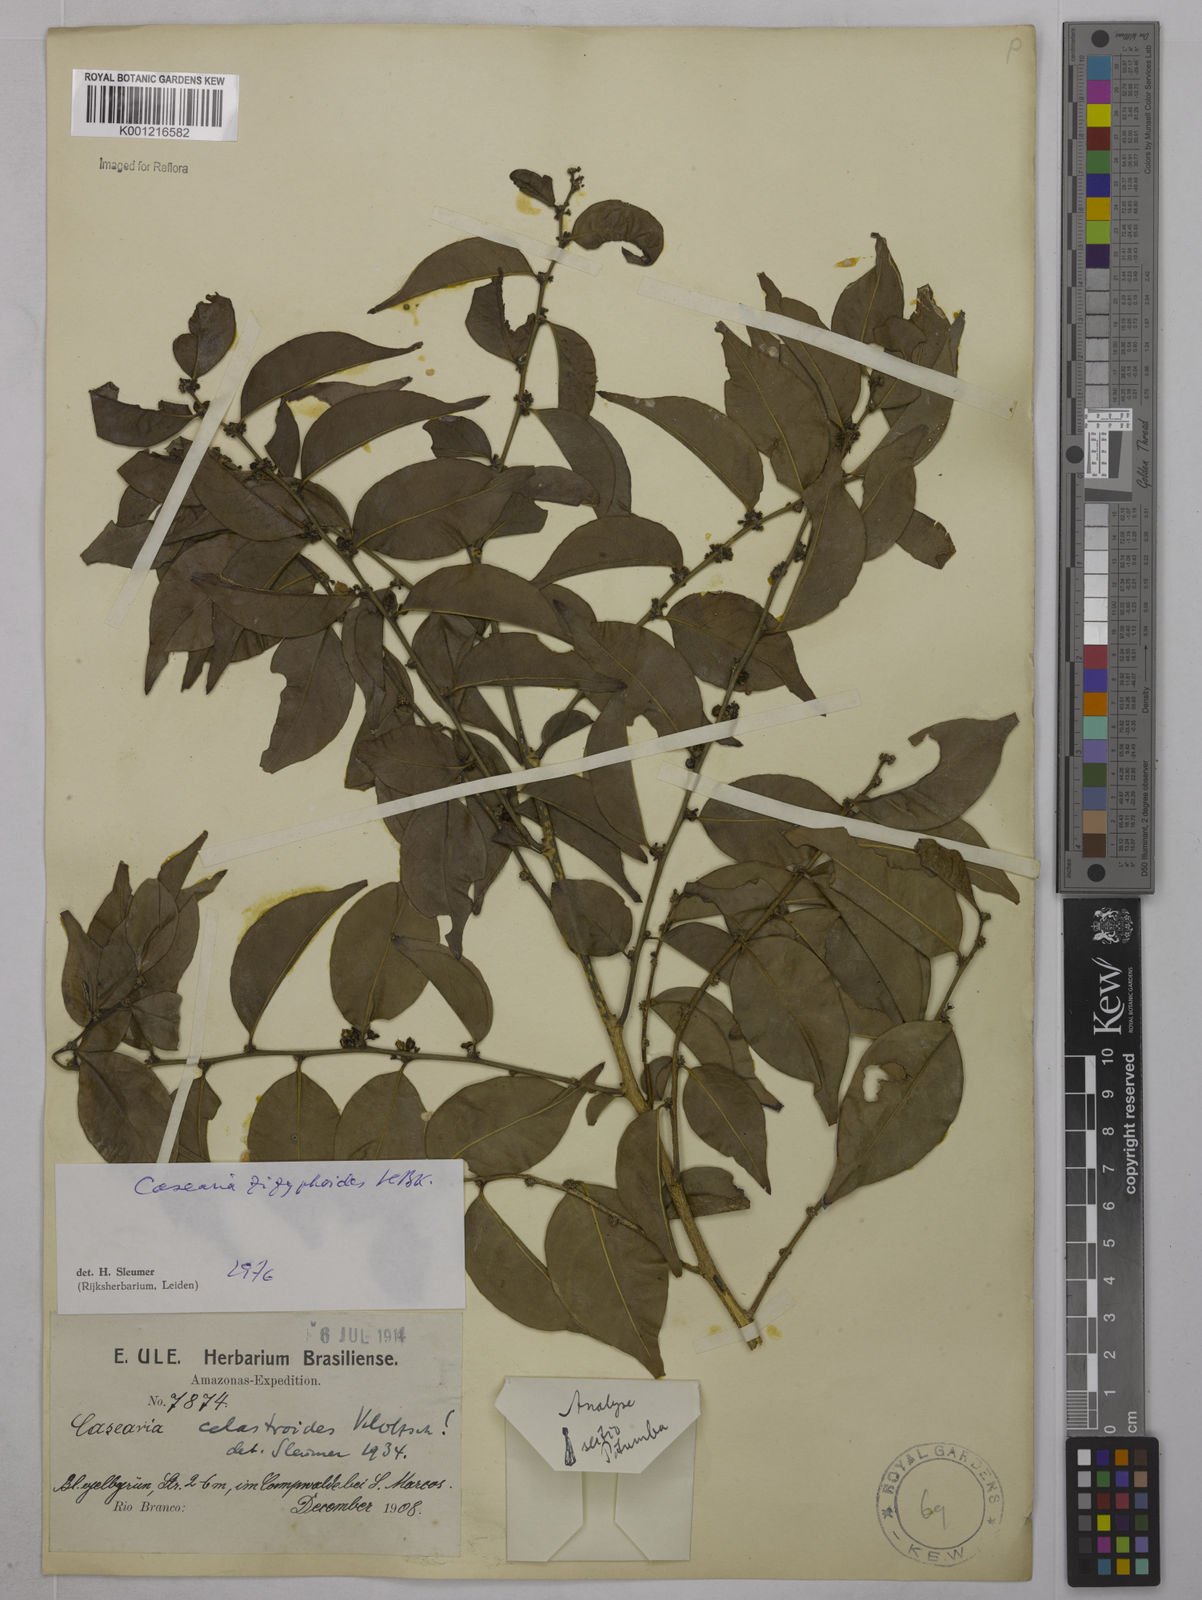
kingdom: Plantae
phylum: Tracheophyta
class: Magnoliopsida
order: Malpighiales
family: Salicaceae
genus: Casearia
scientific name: Casearia zizyphoides
